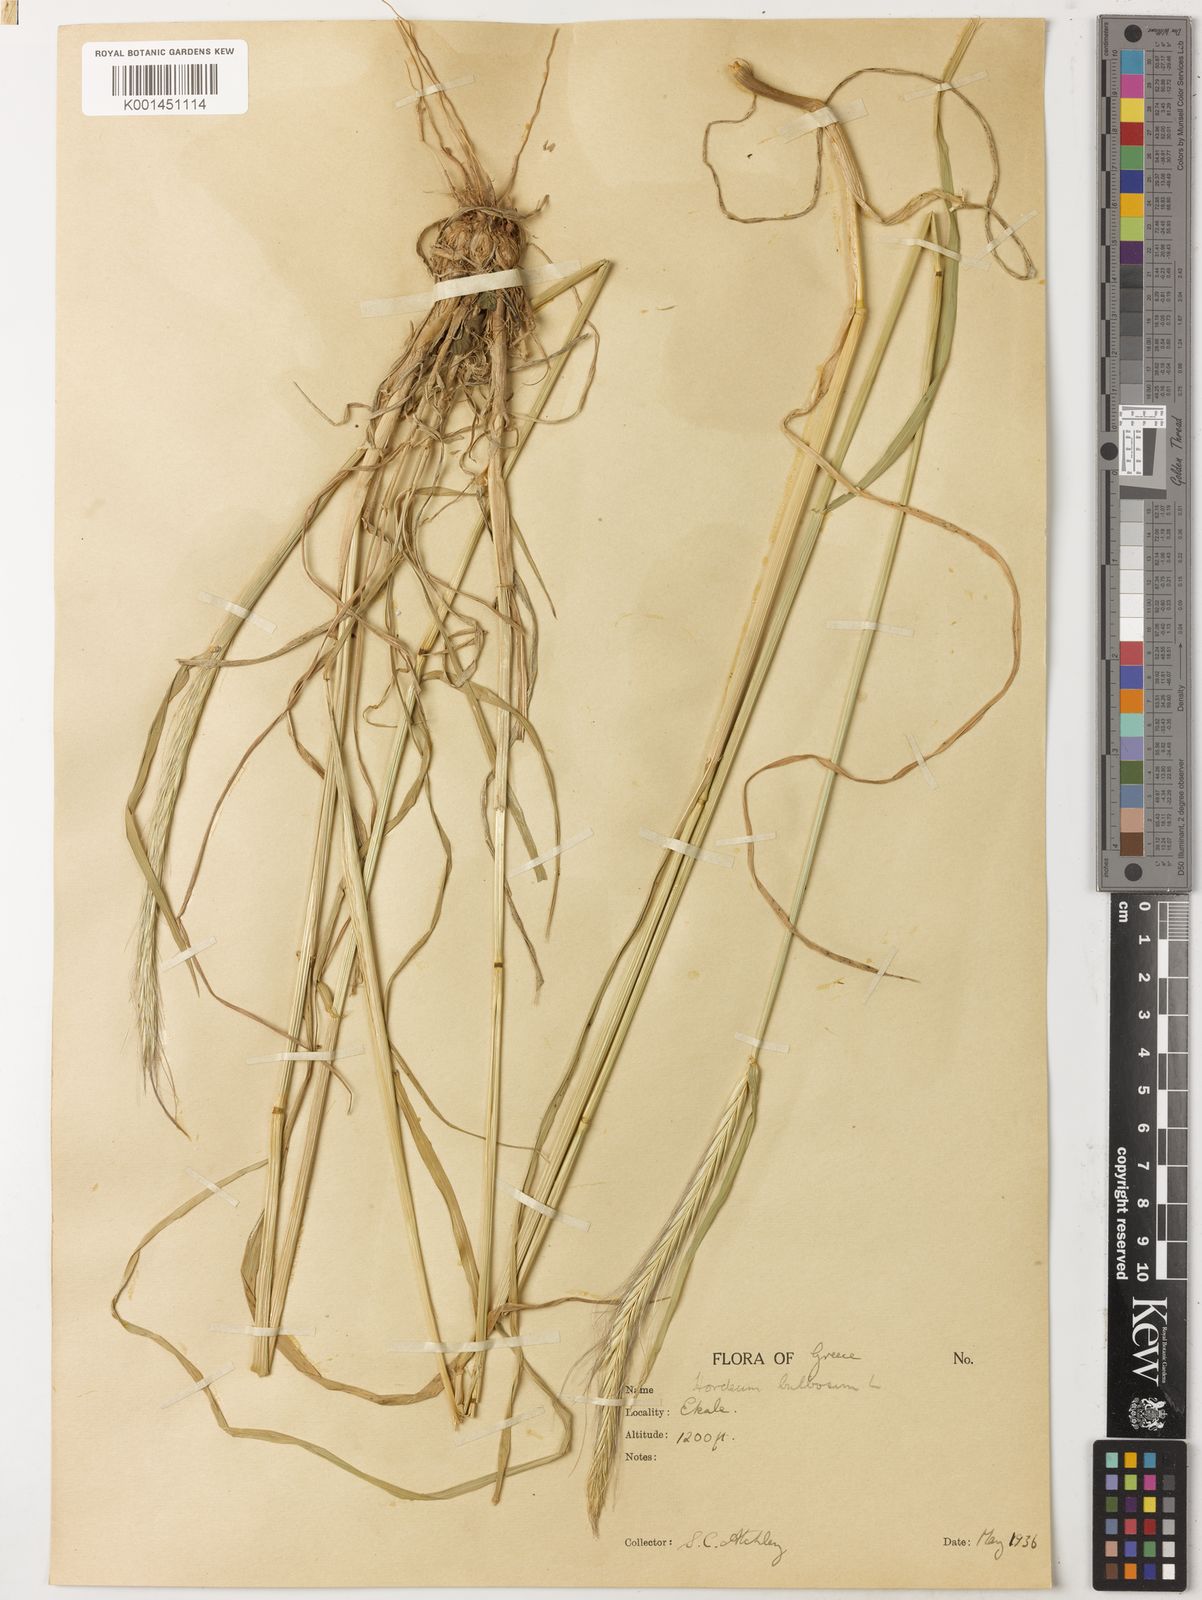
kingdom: Plantae
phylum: Tracheophyta
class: Liliopsida
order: Poales
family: Poaceae
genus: Hordeum
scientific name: Hordeum bulbosum
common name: Bulbous barley
